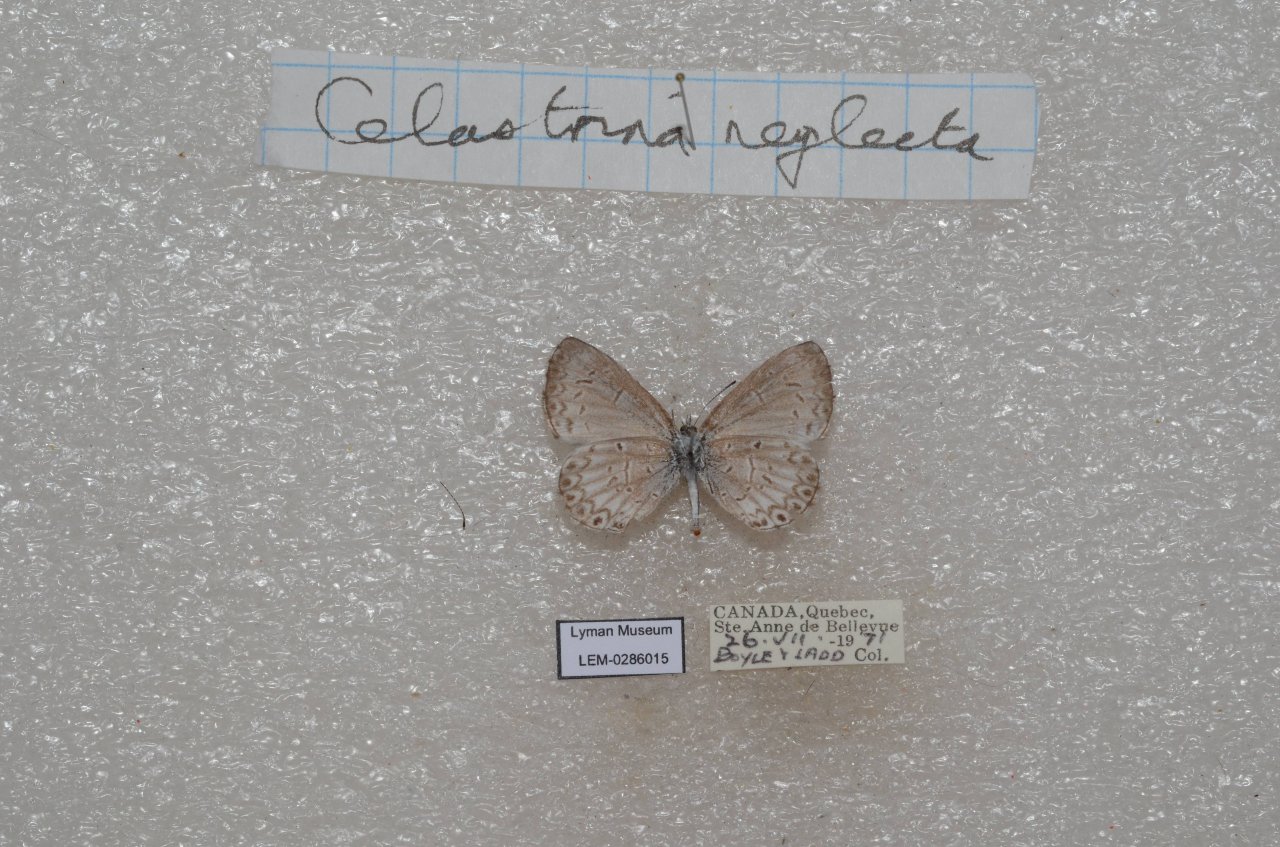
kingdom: Animalia
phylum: Arthropoda
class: Insecta
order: Lepidoptera
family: Lycaenidae
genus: Celastrina
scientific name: Celastrina lucia
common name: Northern Spring Azure
